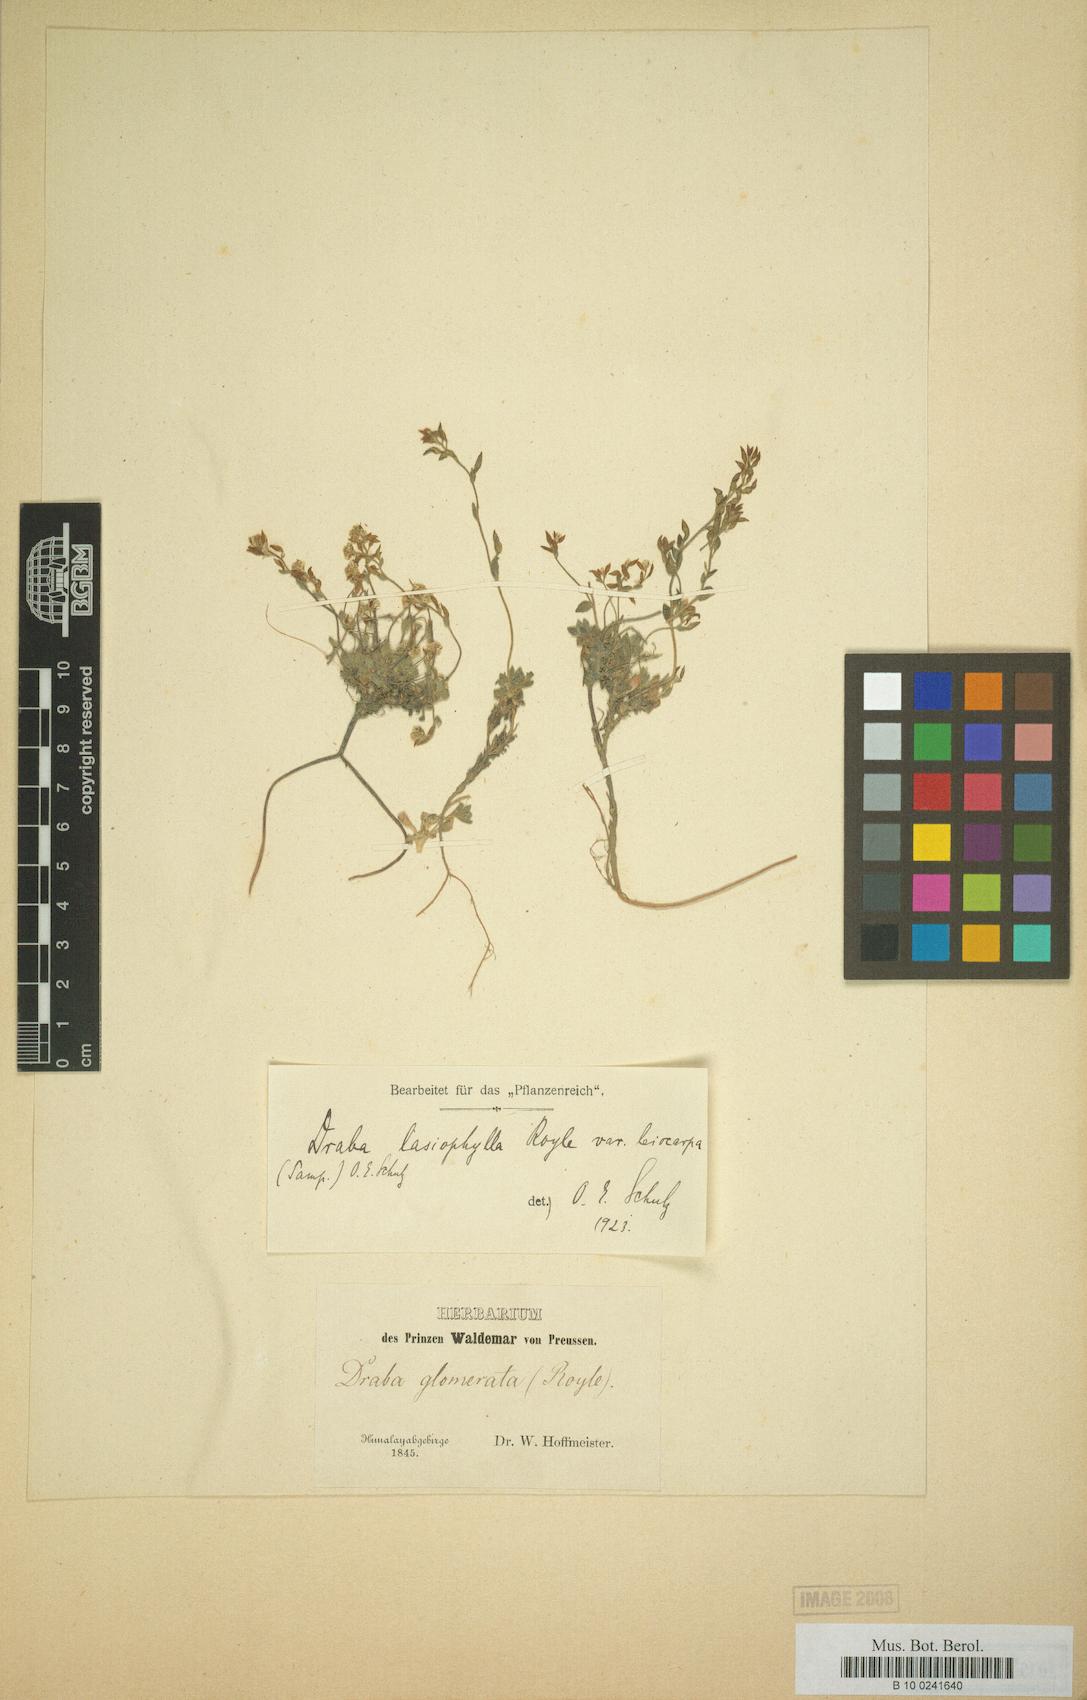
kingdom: Plantae
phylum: Tracheophyta
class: Magnoliopsida
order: Brassicales
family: Brassicaceae
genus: Draba
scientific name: Draba lasiophylla
